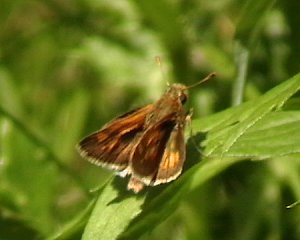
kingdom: Animalia
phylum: Arthropoda
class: Insecta
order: Lepidoptera
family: Hesperiidae
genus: Polites
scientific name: Polites coras
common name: Peck's Skipper
